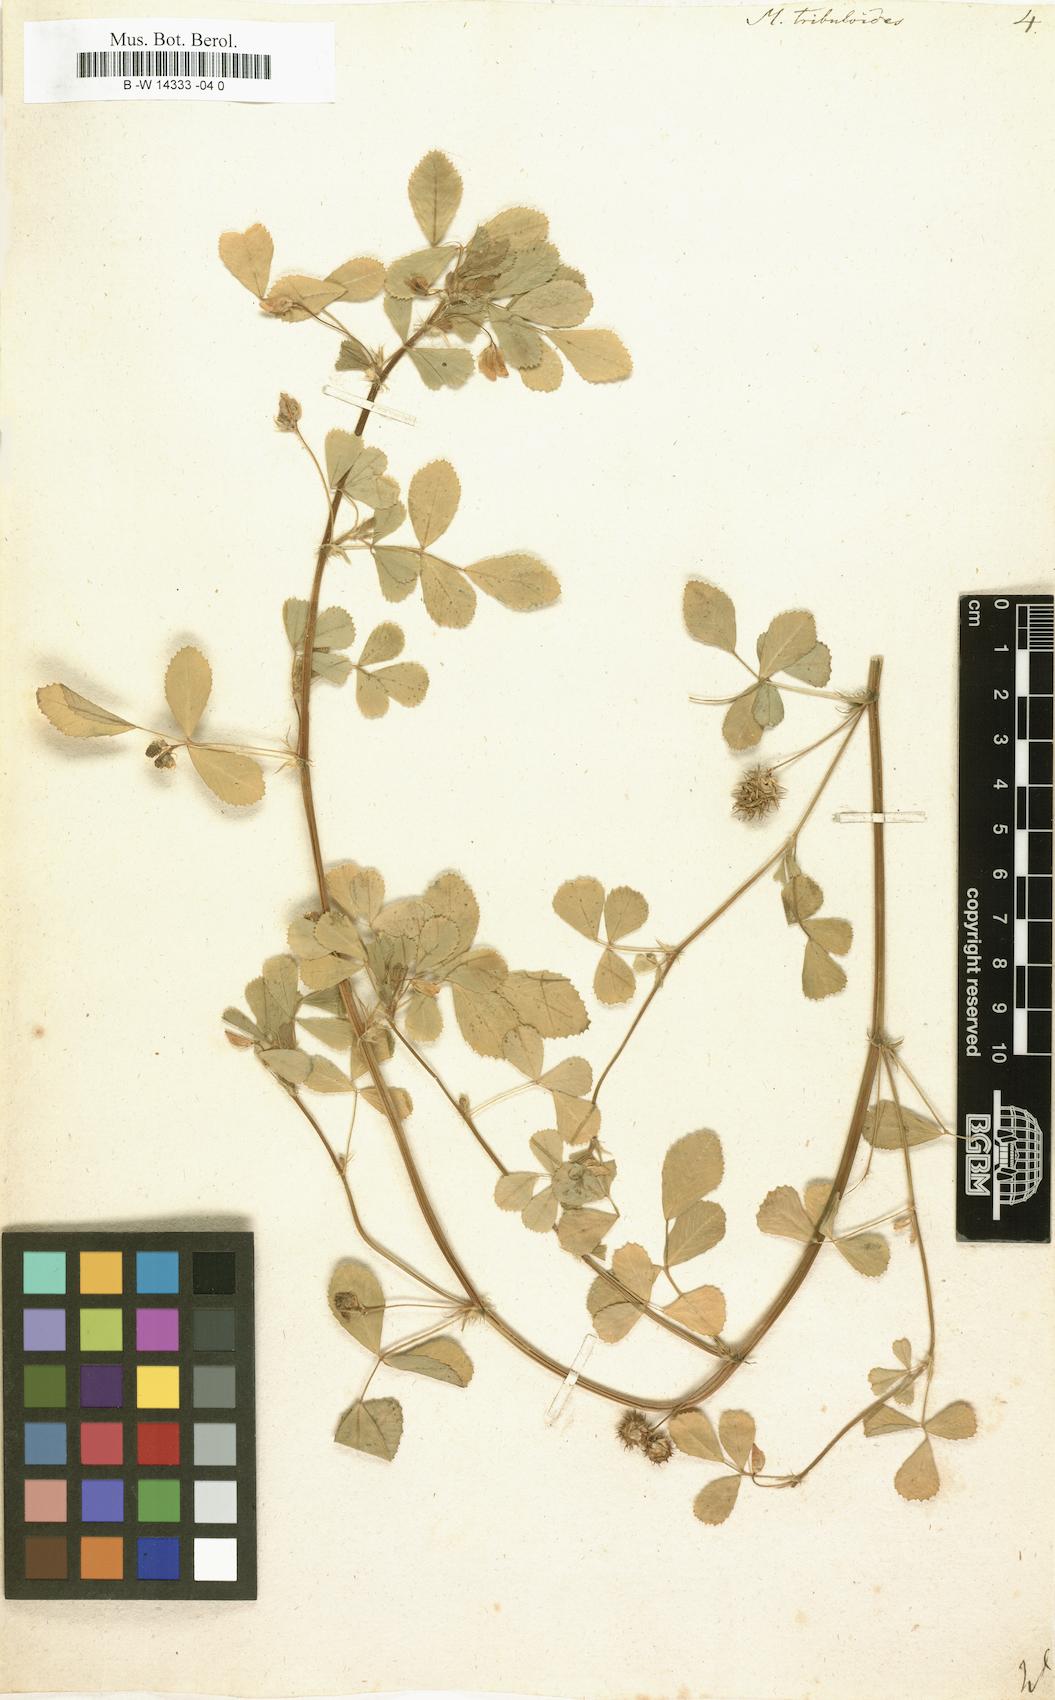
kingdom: Plantae
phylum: Tracheophyta
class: Magnoliopsida
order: Fabales
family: Fabaceae
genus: Medicago
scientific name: Medicago truncatula
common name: Strong-spined medick
